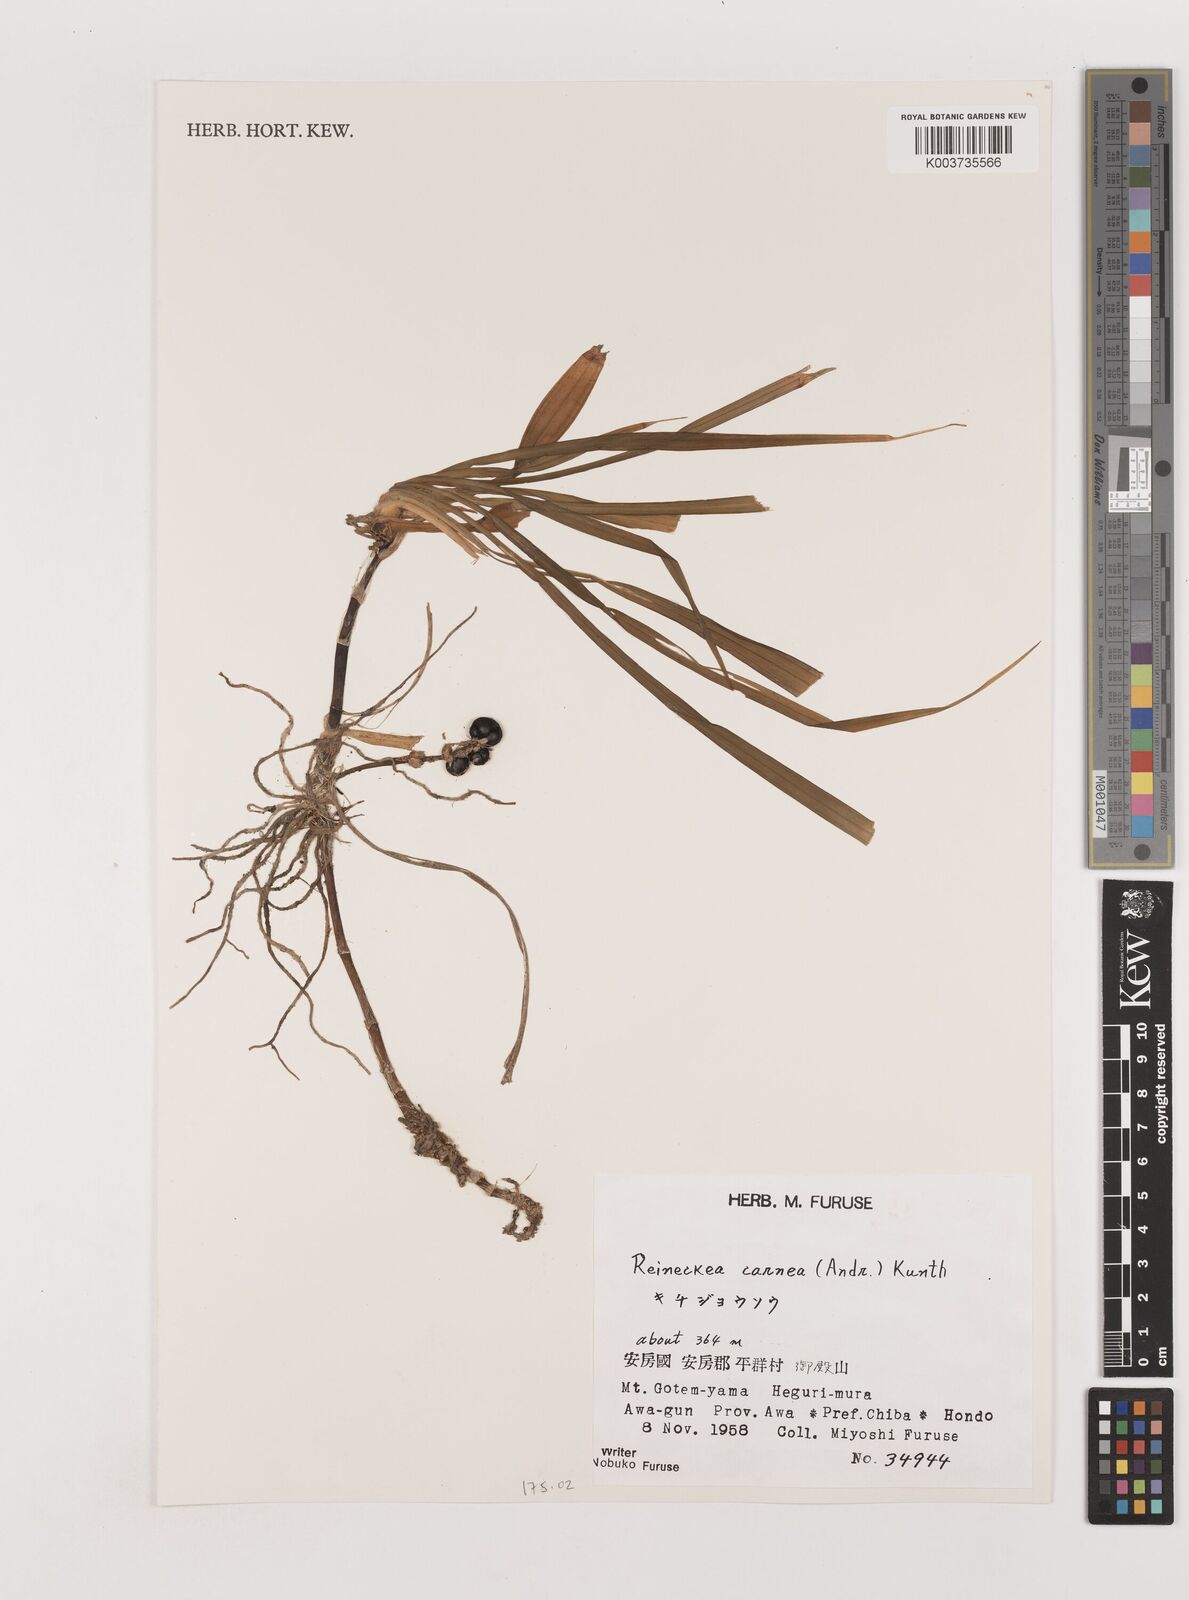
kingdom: Plantae
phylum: Tracheophyta
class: Liliopsida
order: Asparagales
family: Asparagaceae
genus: Reineckea
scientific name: Reineckea carnea
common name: Reineckea
